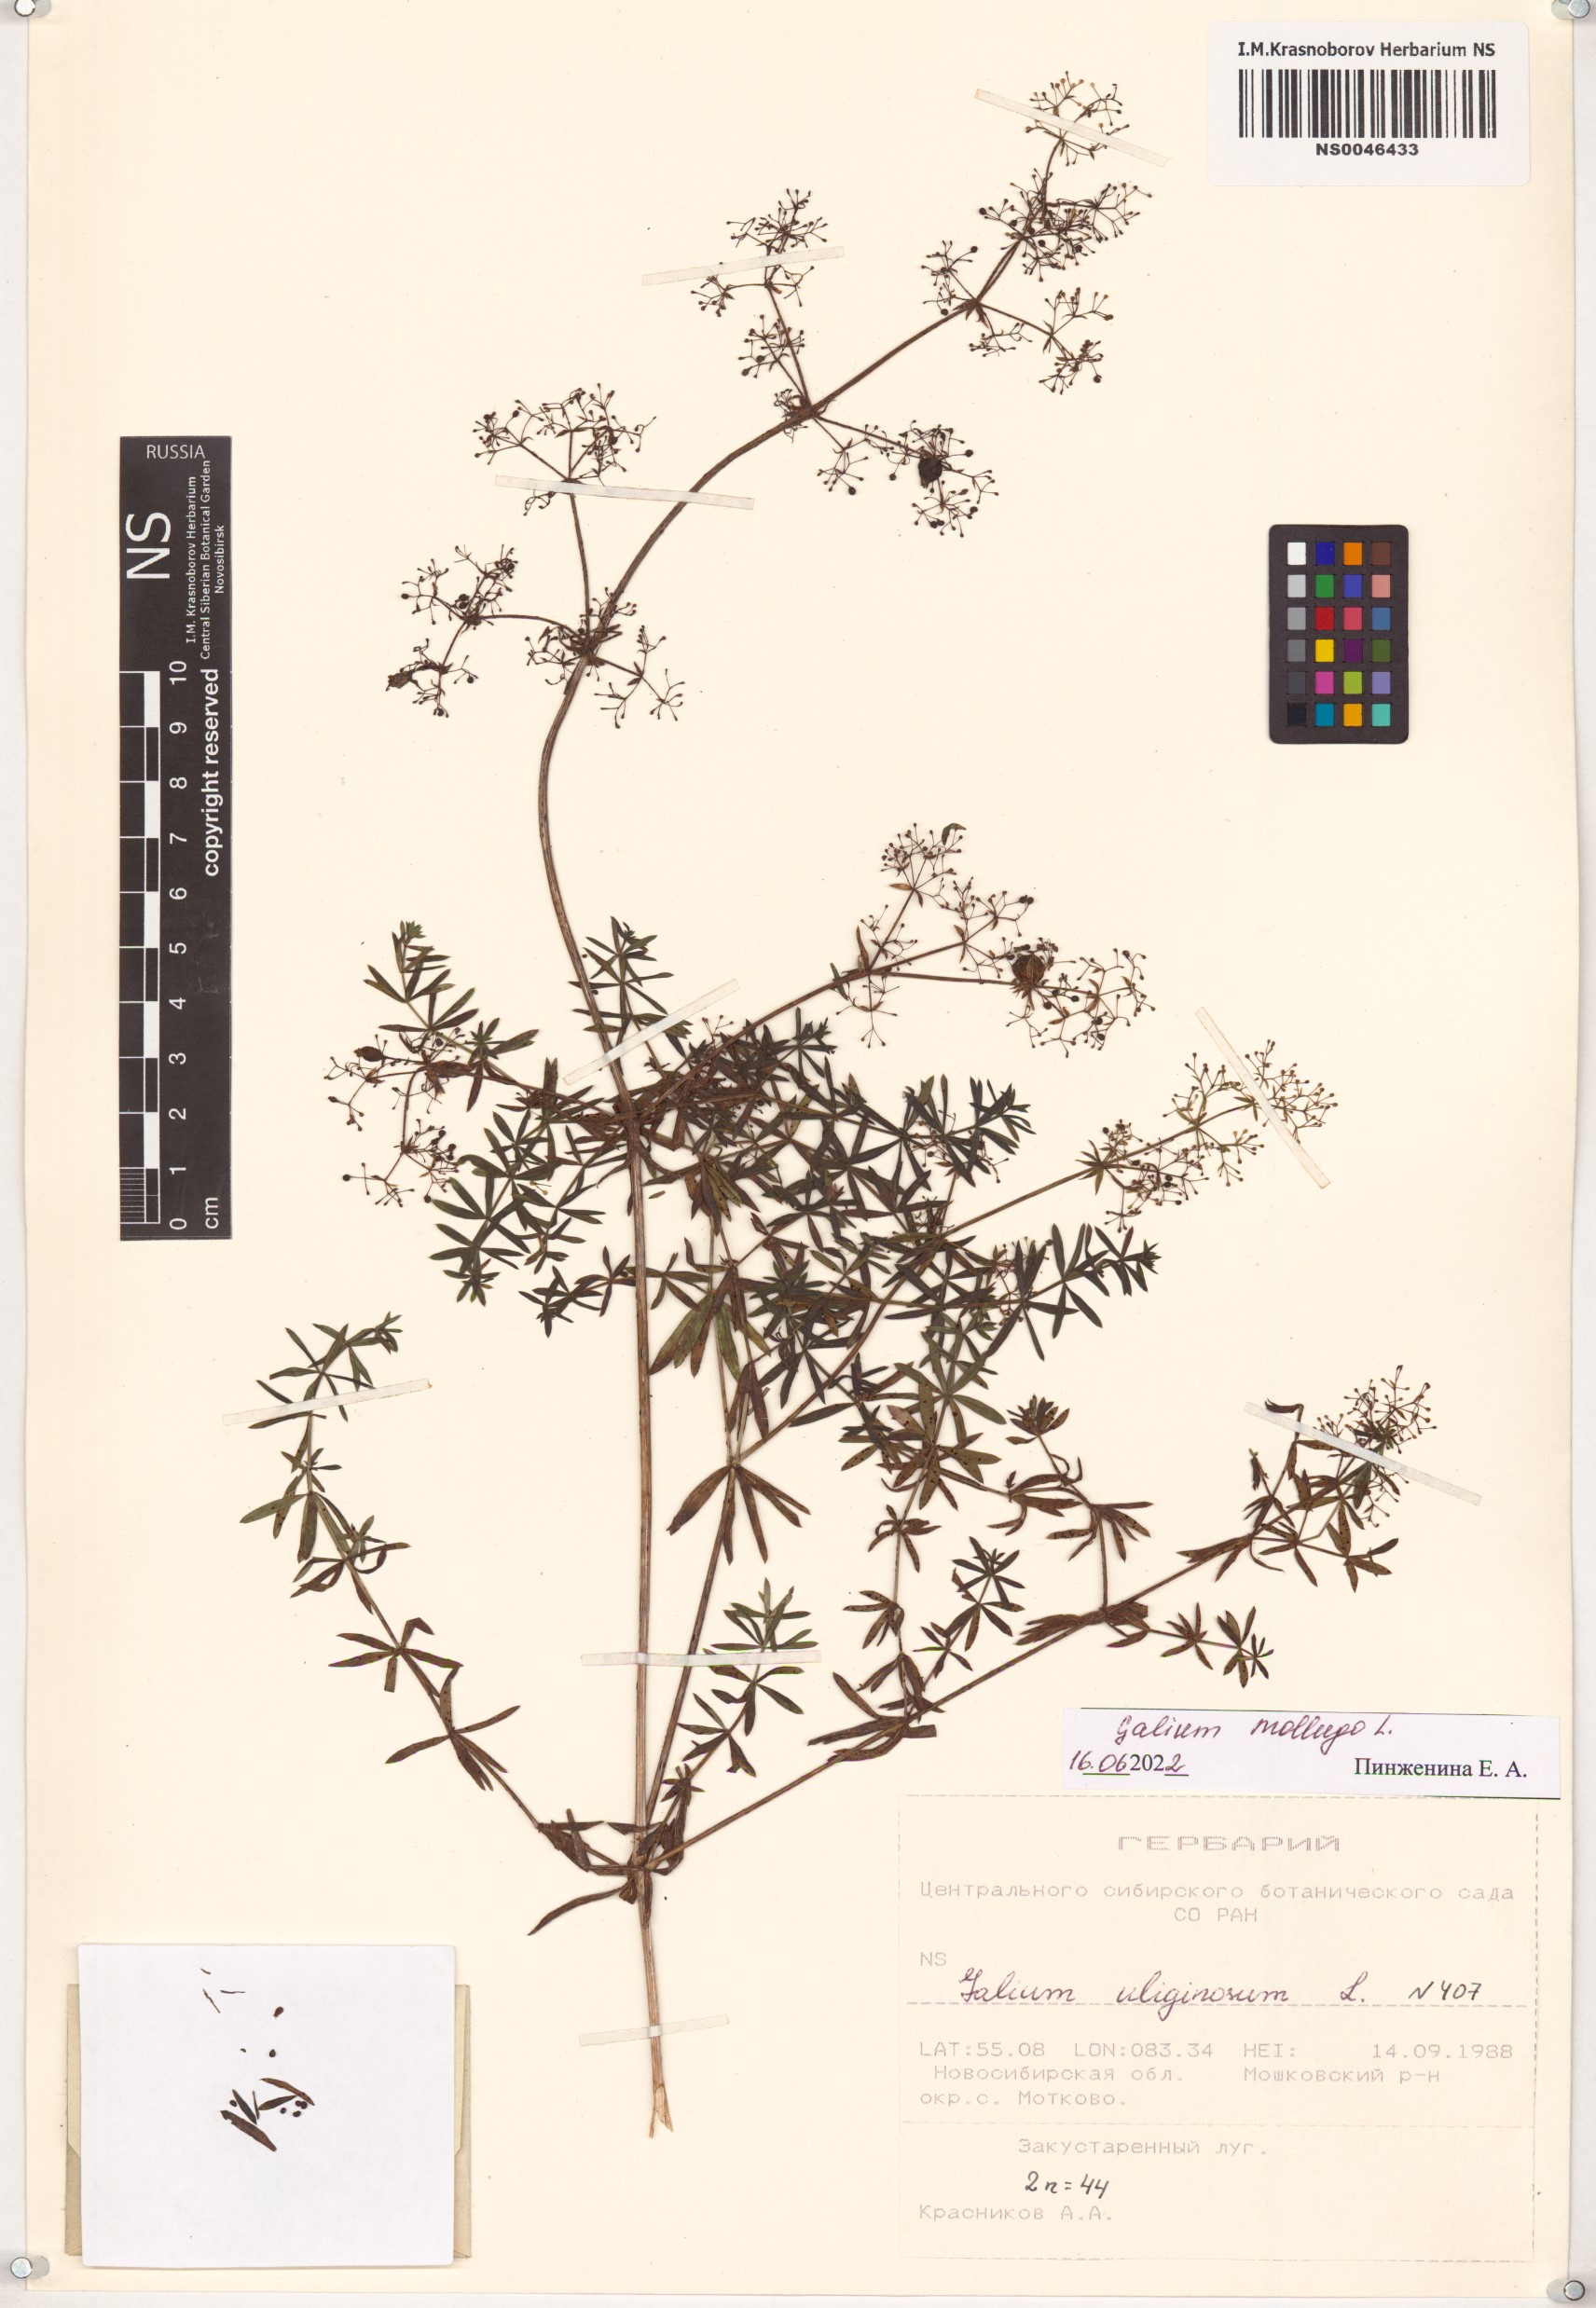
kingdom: Plantae
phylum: Tracheophyta
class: Magnoliopsida
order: Gentianales
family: Rubiaceae
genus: Galium
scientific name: Galium mollugo
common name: Hedge bedstraw
